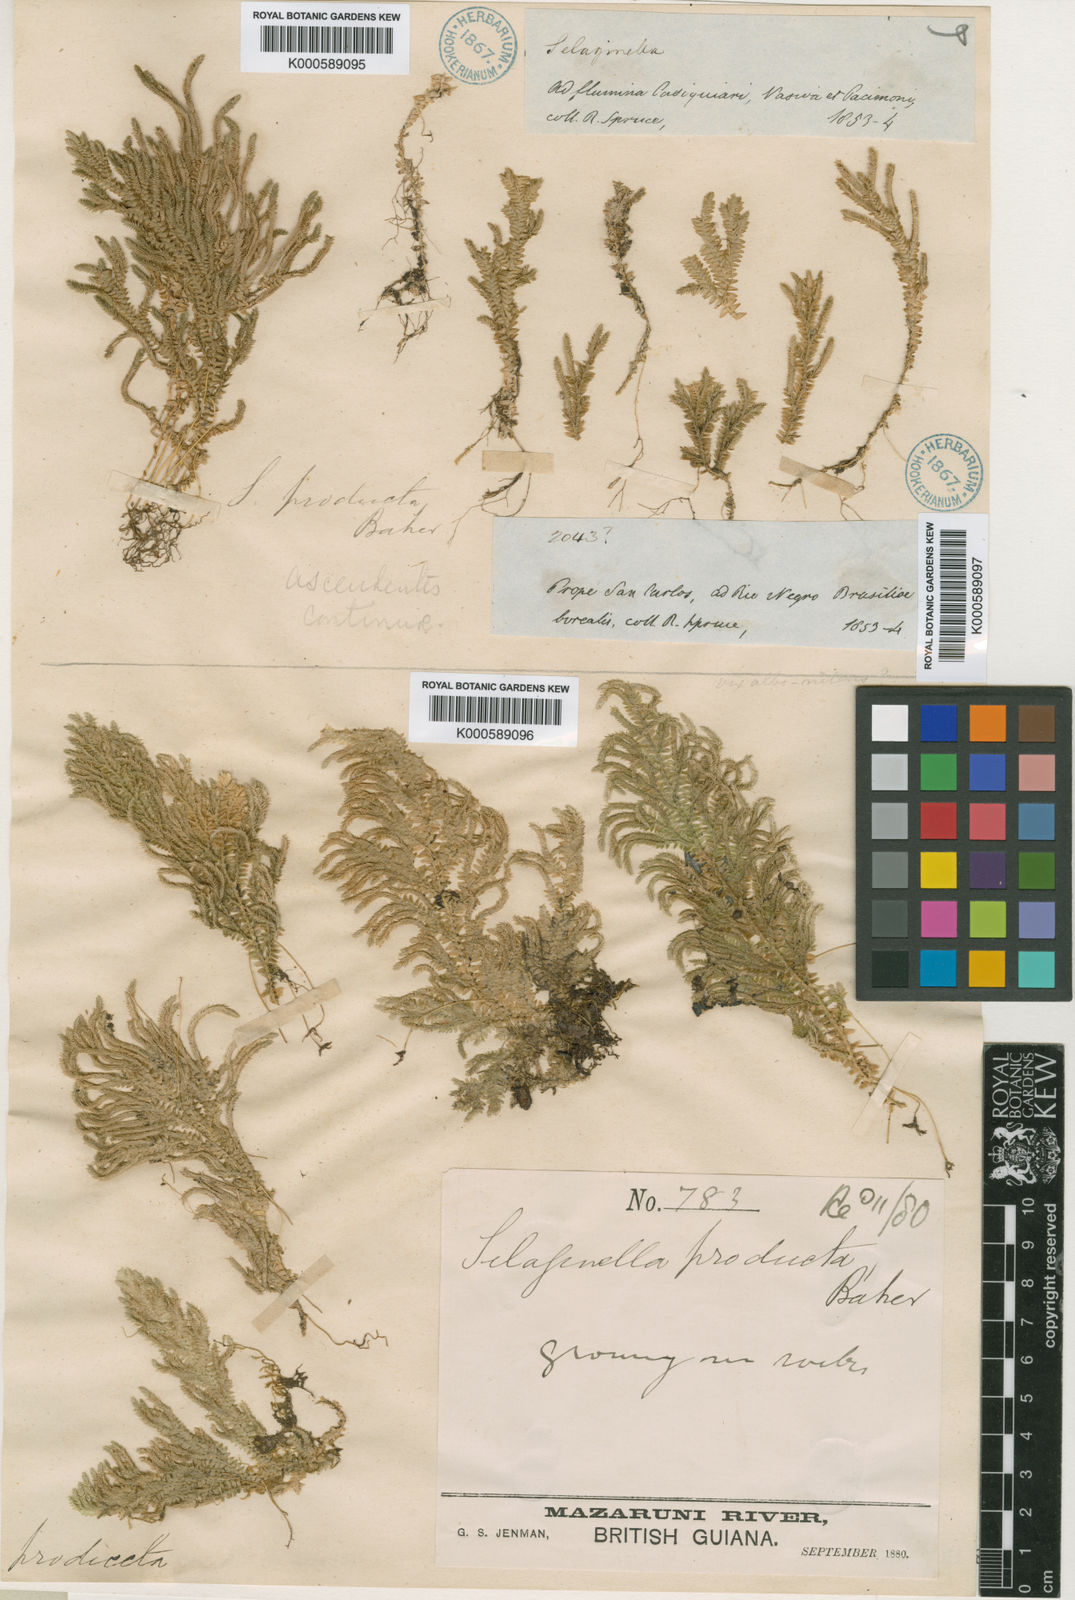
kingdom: Plantae
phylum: Tracheophyta
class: Lycopodiopsida
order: Selaginellales
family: Selaginellaceae
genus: Selaginella
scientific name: Selaginella revoluta
